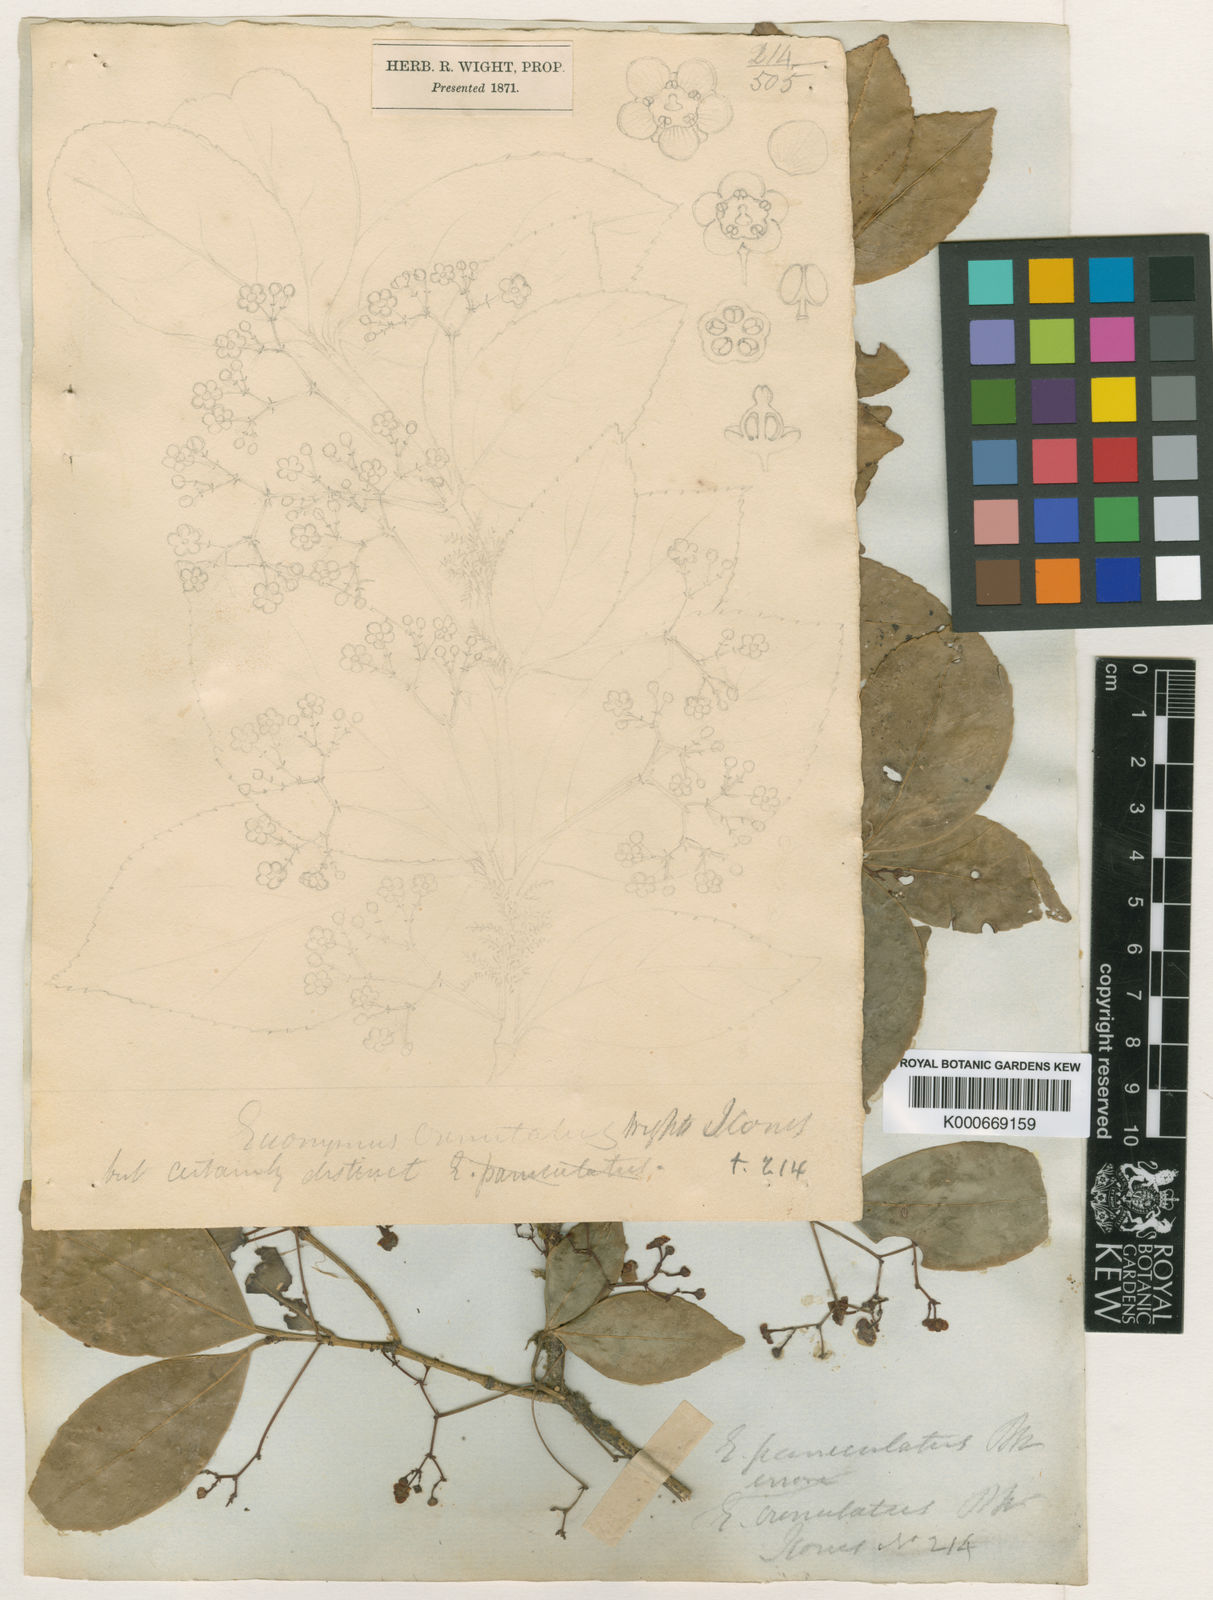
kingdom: Plantae
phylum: Tracheophyta
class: Magnoliopsida
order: Celastrales
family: Celastraceae
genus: Euonymus
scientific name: Euonymus laxiflorus
